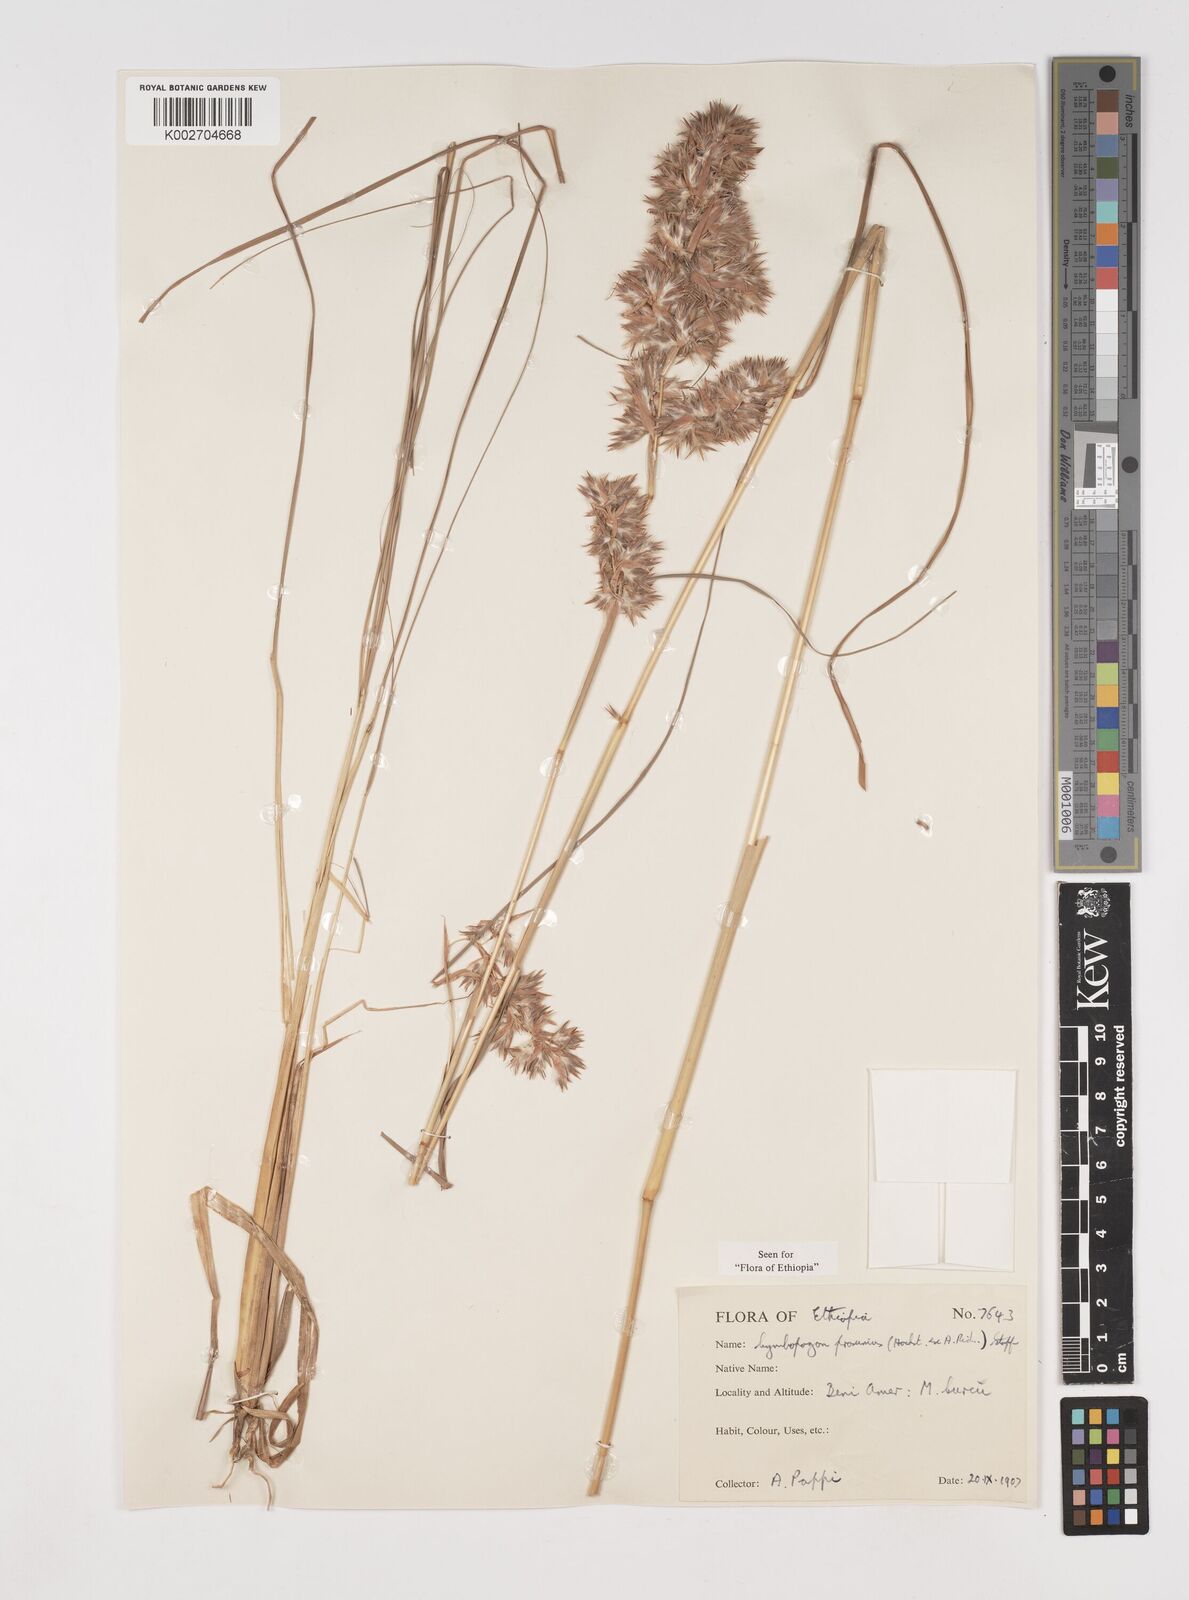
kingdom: Plantae
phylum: Tracheophyta
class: Liliopsida
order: Poales
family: Poaceae
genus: Cymbopogon
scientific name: Cymbopogon schoenanthus
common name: Geranium grass
